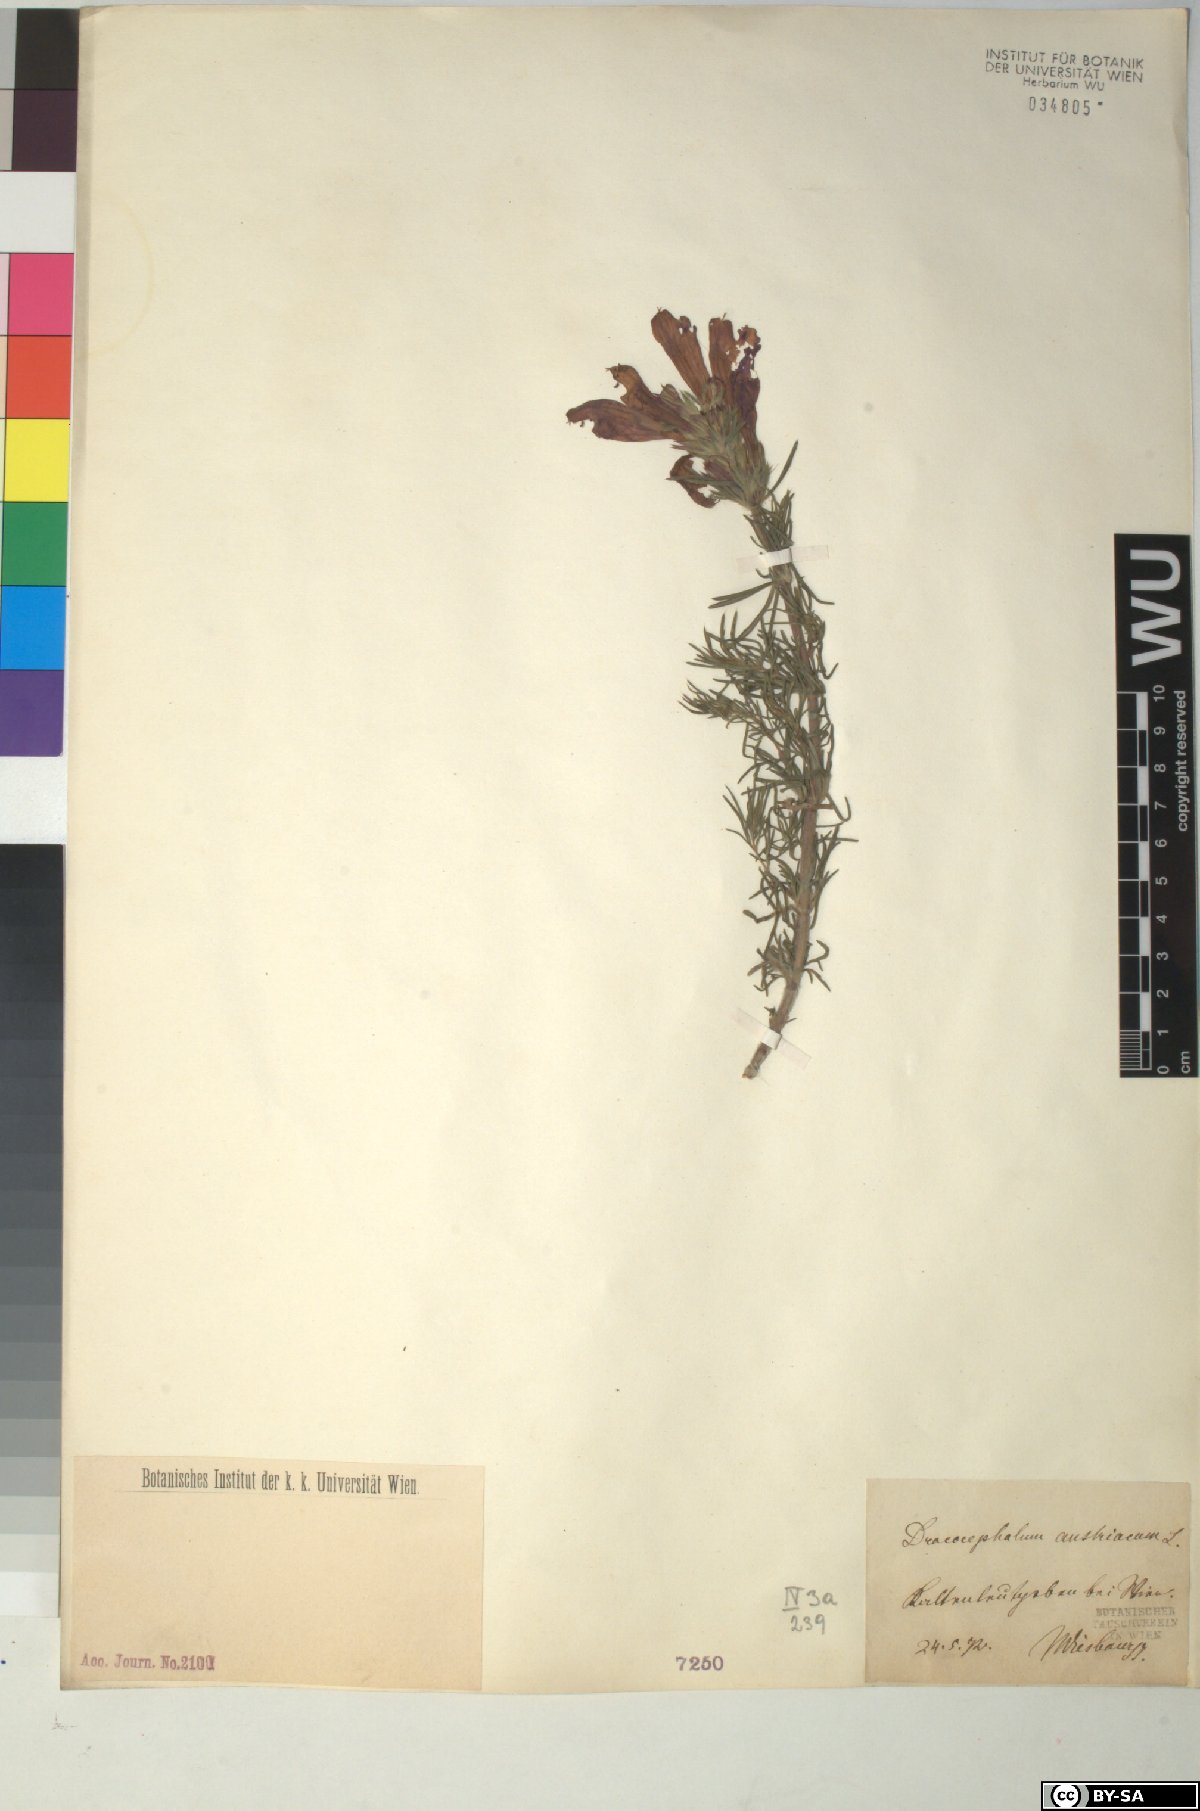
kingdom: Plantae
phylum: Tracheophyta
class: Magnoliopsida
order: Lamiales
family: Lamiaceae
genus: Dracocephalum
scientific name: Dracocephalum austriacum
